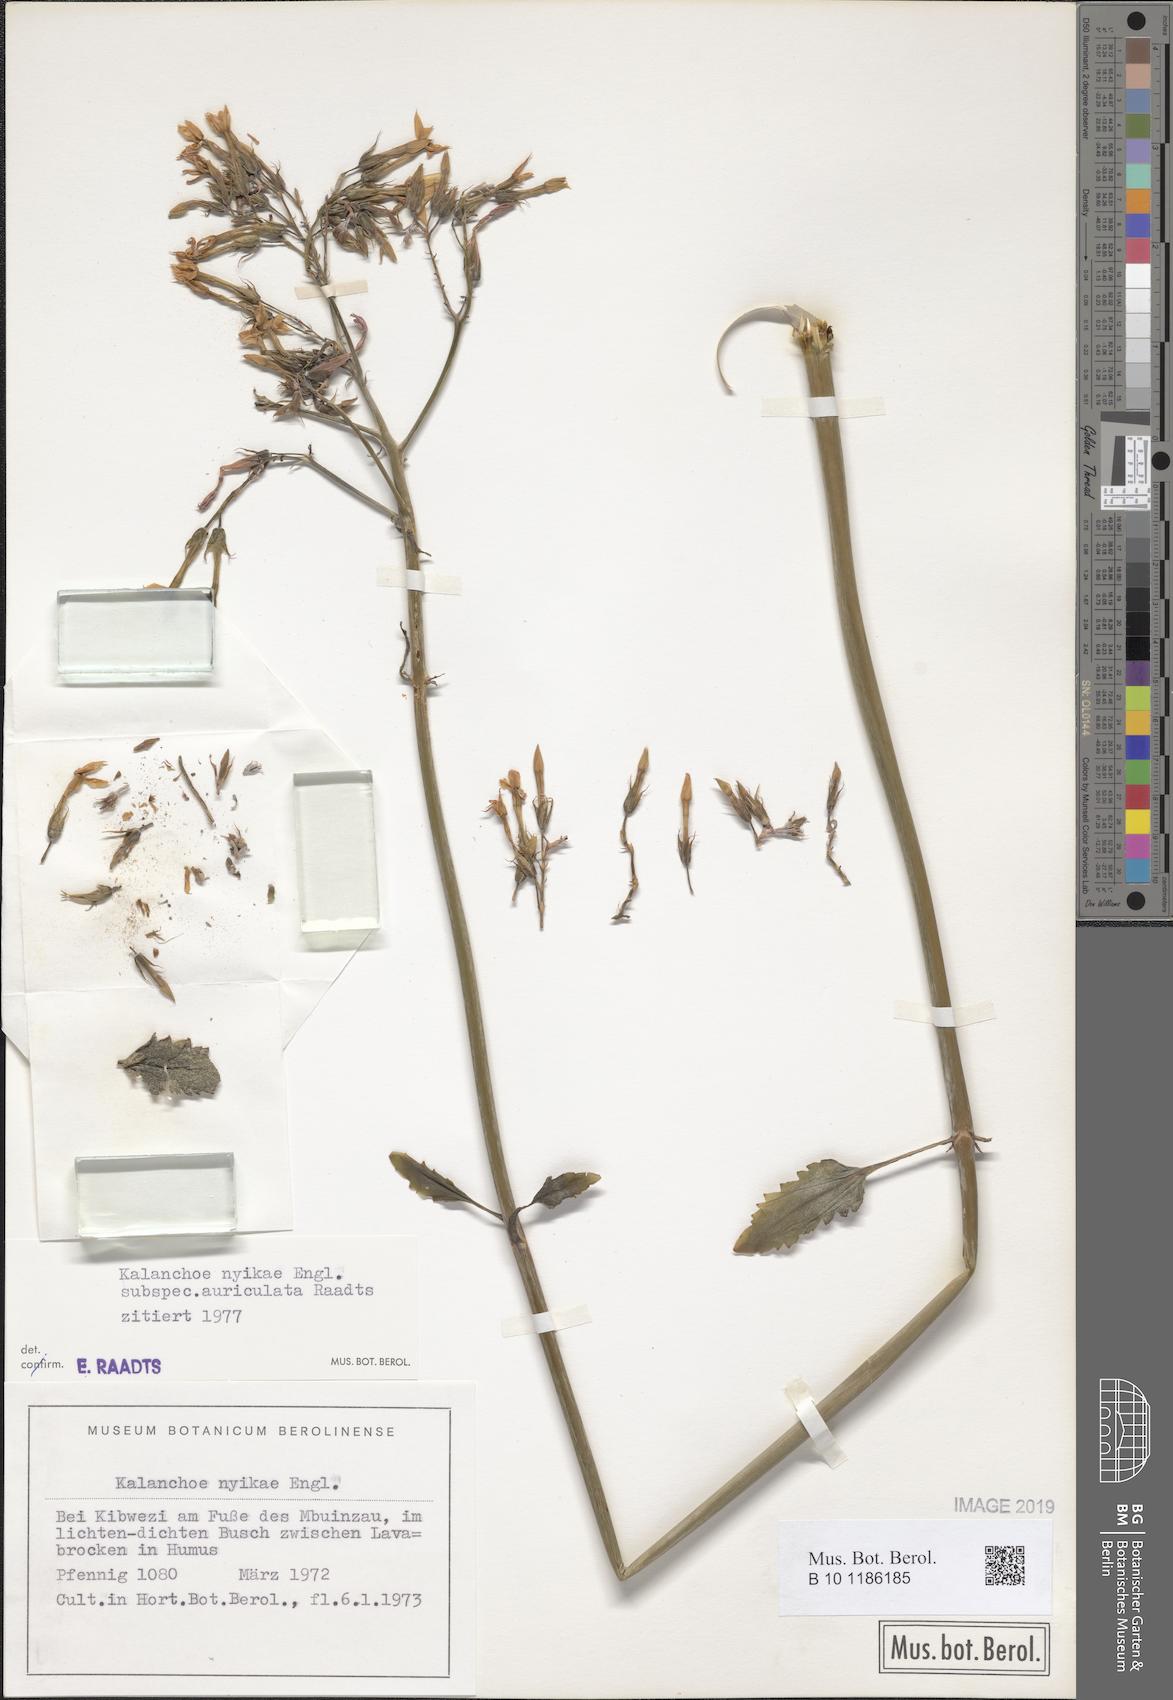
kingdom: Plantae
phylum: Tracheophyta
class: Magnoliopsida
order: Saxifragales
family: Crassulaceae
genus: Kalanchoe
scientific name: Kalanchoe auriculata
